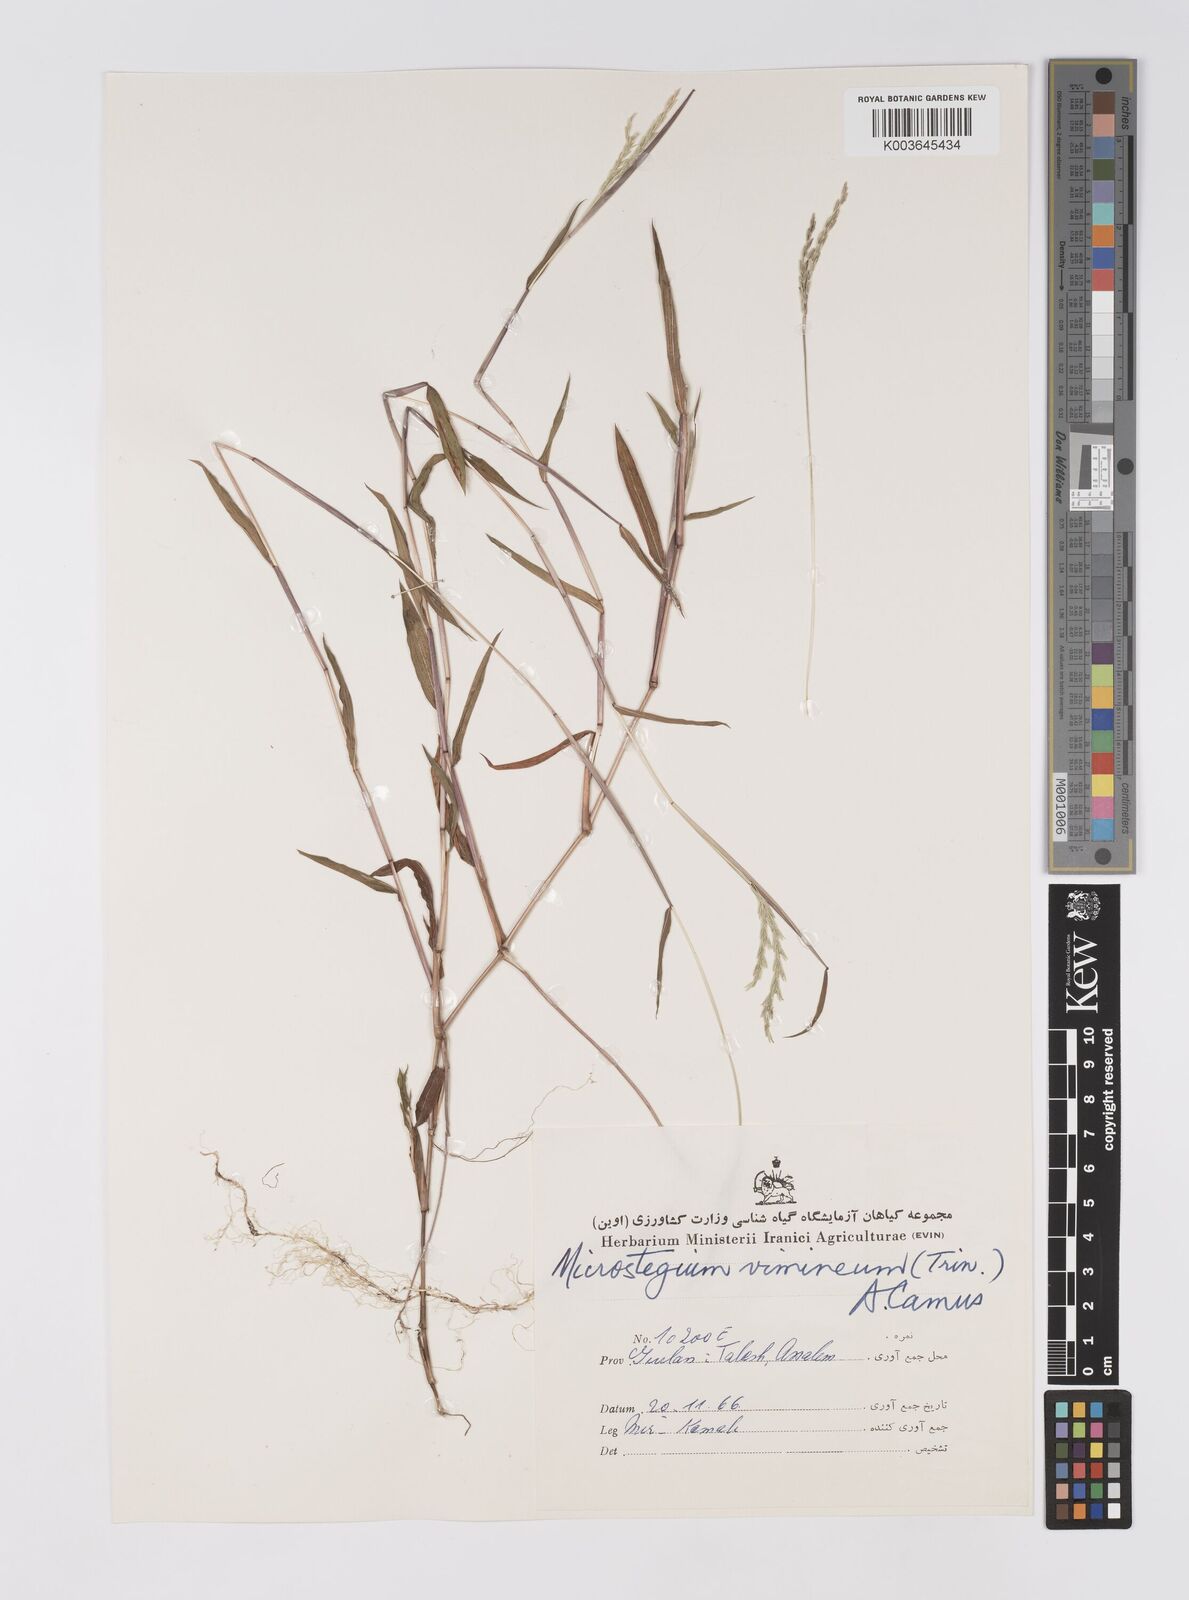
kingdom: Plantae
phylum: Tracheophyta
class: Liliopsida
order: Poales
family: Poaceae
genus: Microstegium
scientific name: Microstegium vimineum
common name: Japanese stiltgrass
